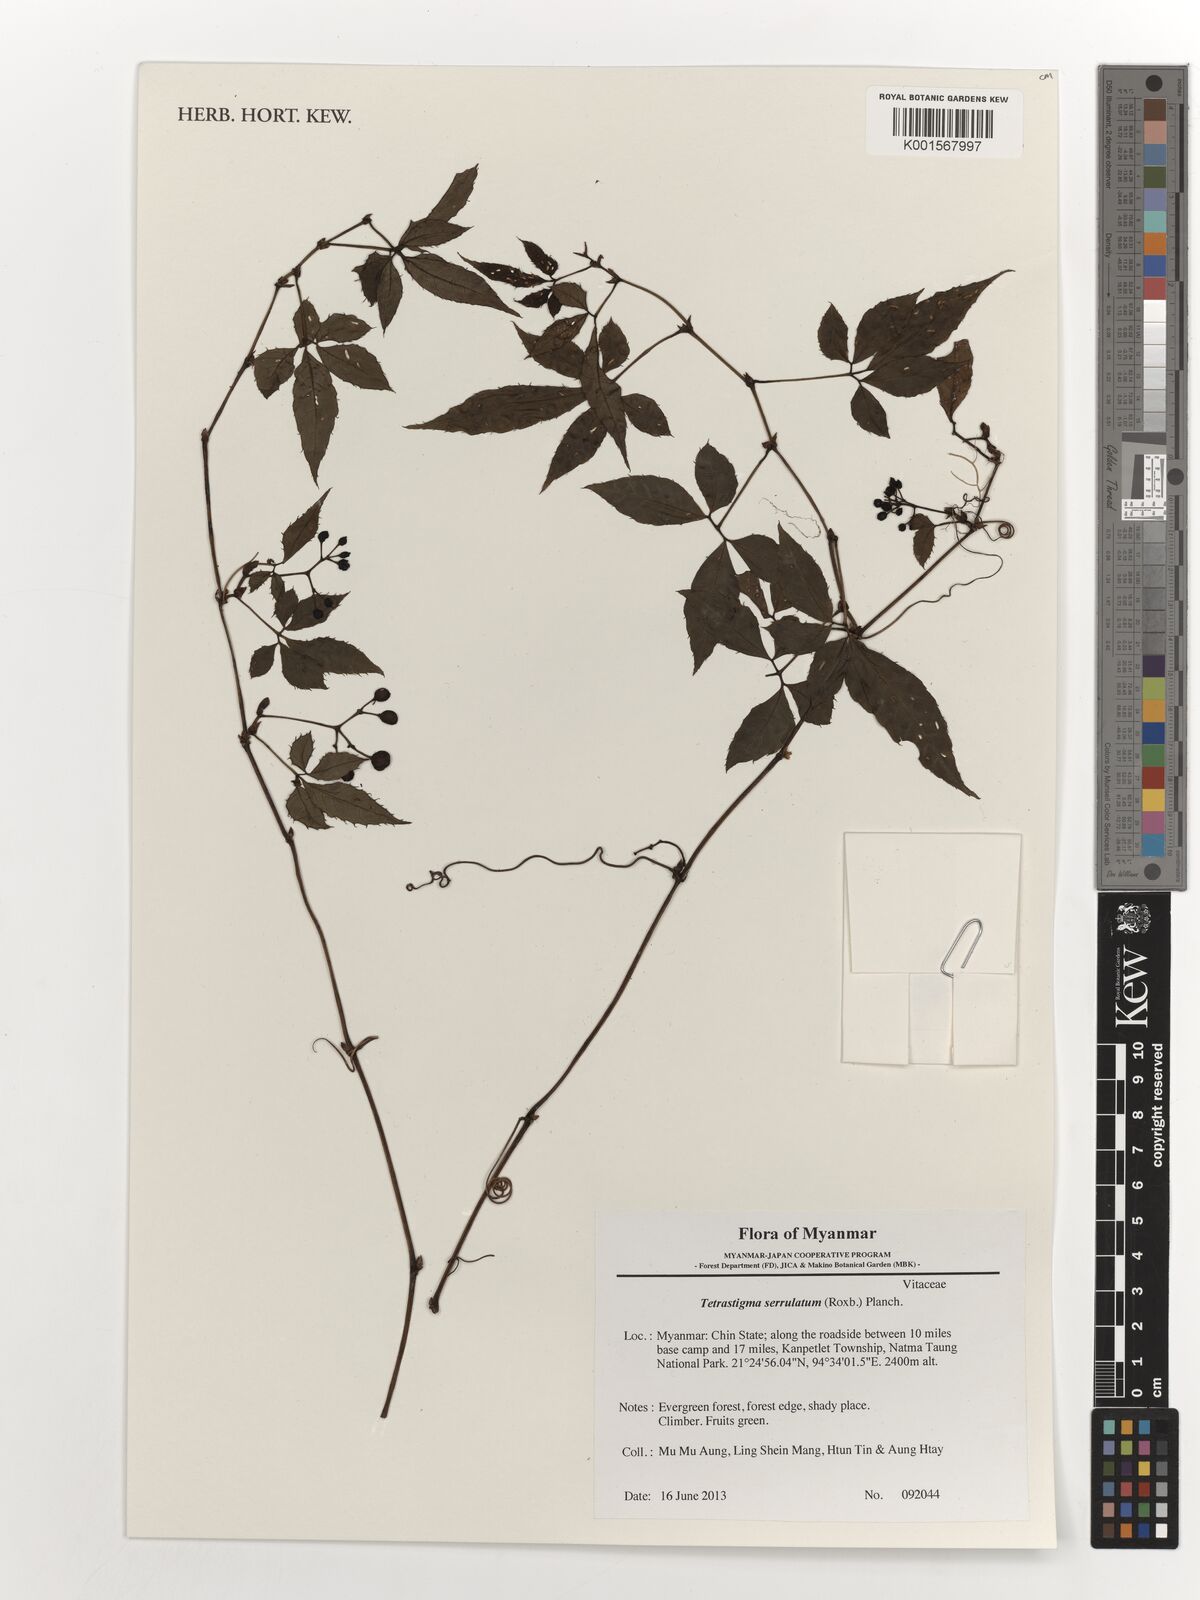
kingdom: Plantae
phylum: Tracheophyta
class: Magnoliopsida
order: Vitales
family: Vitaceae
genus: Tetrastigma
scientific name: Tetrastigma serrulatum
